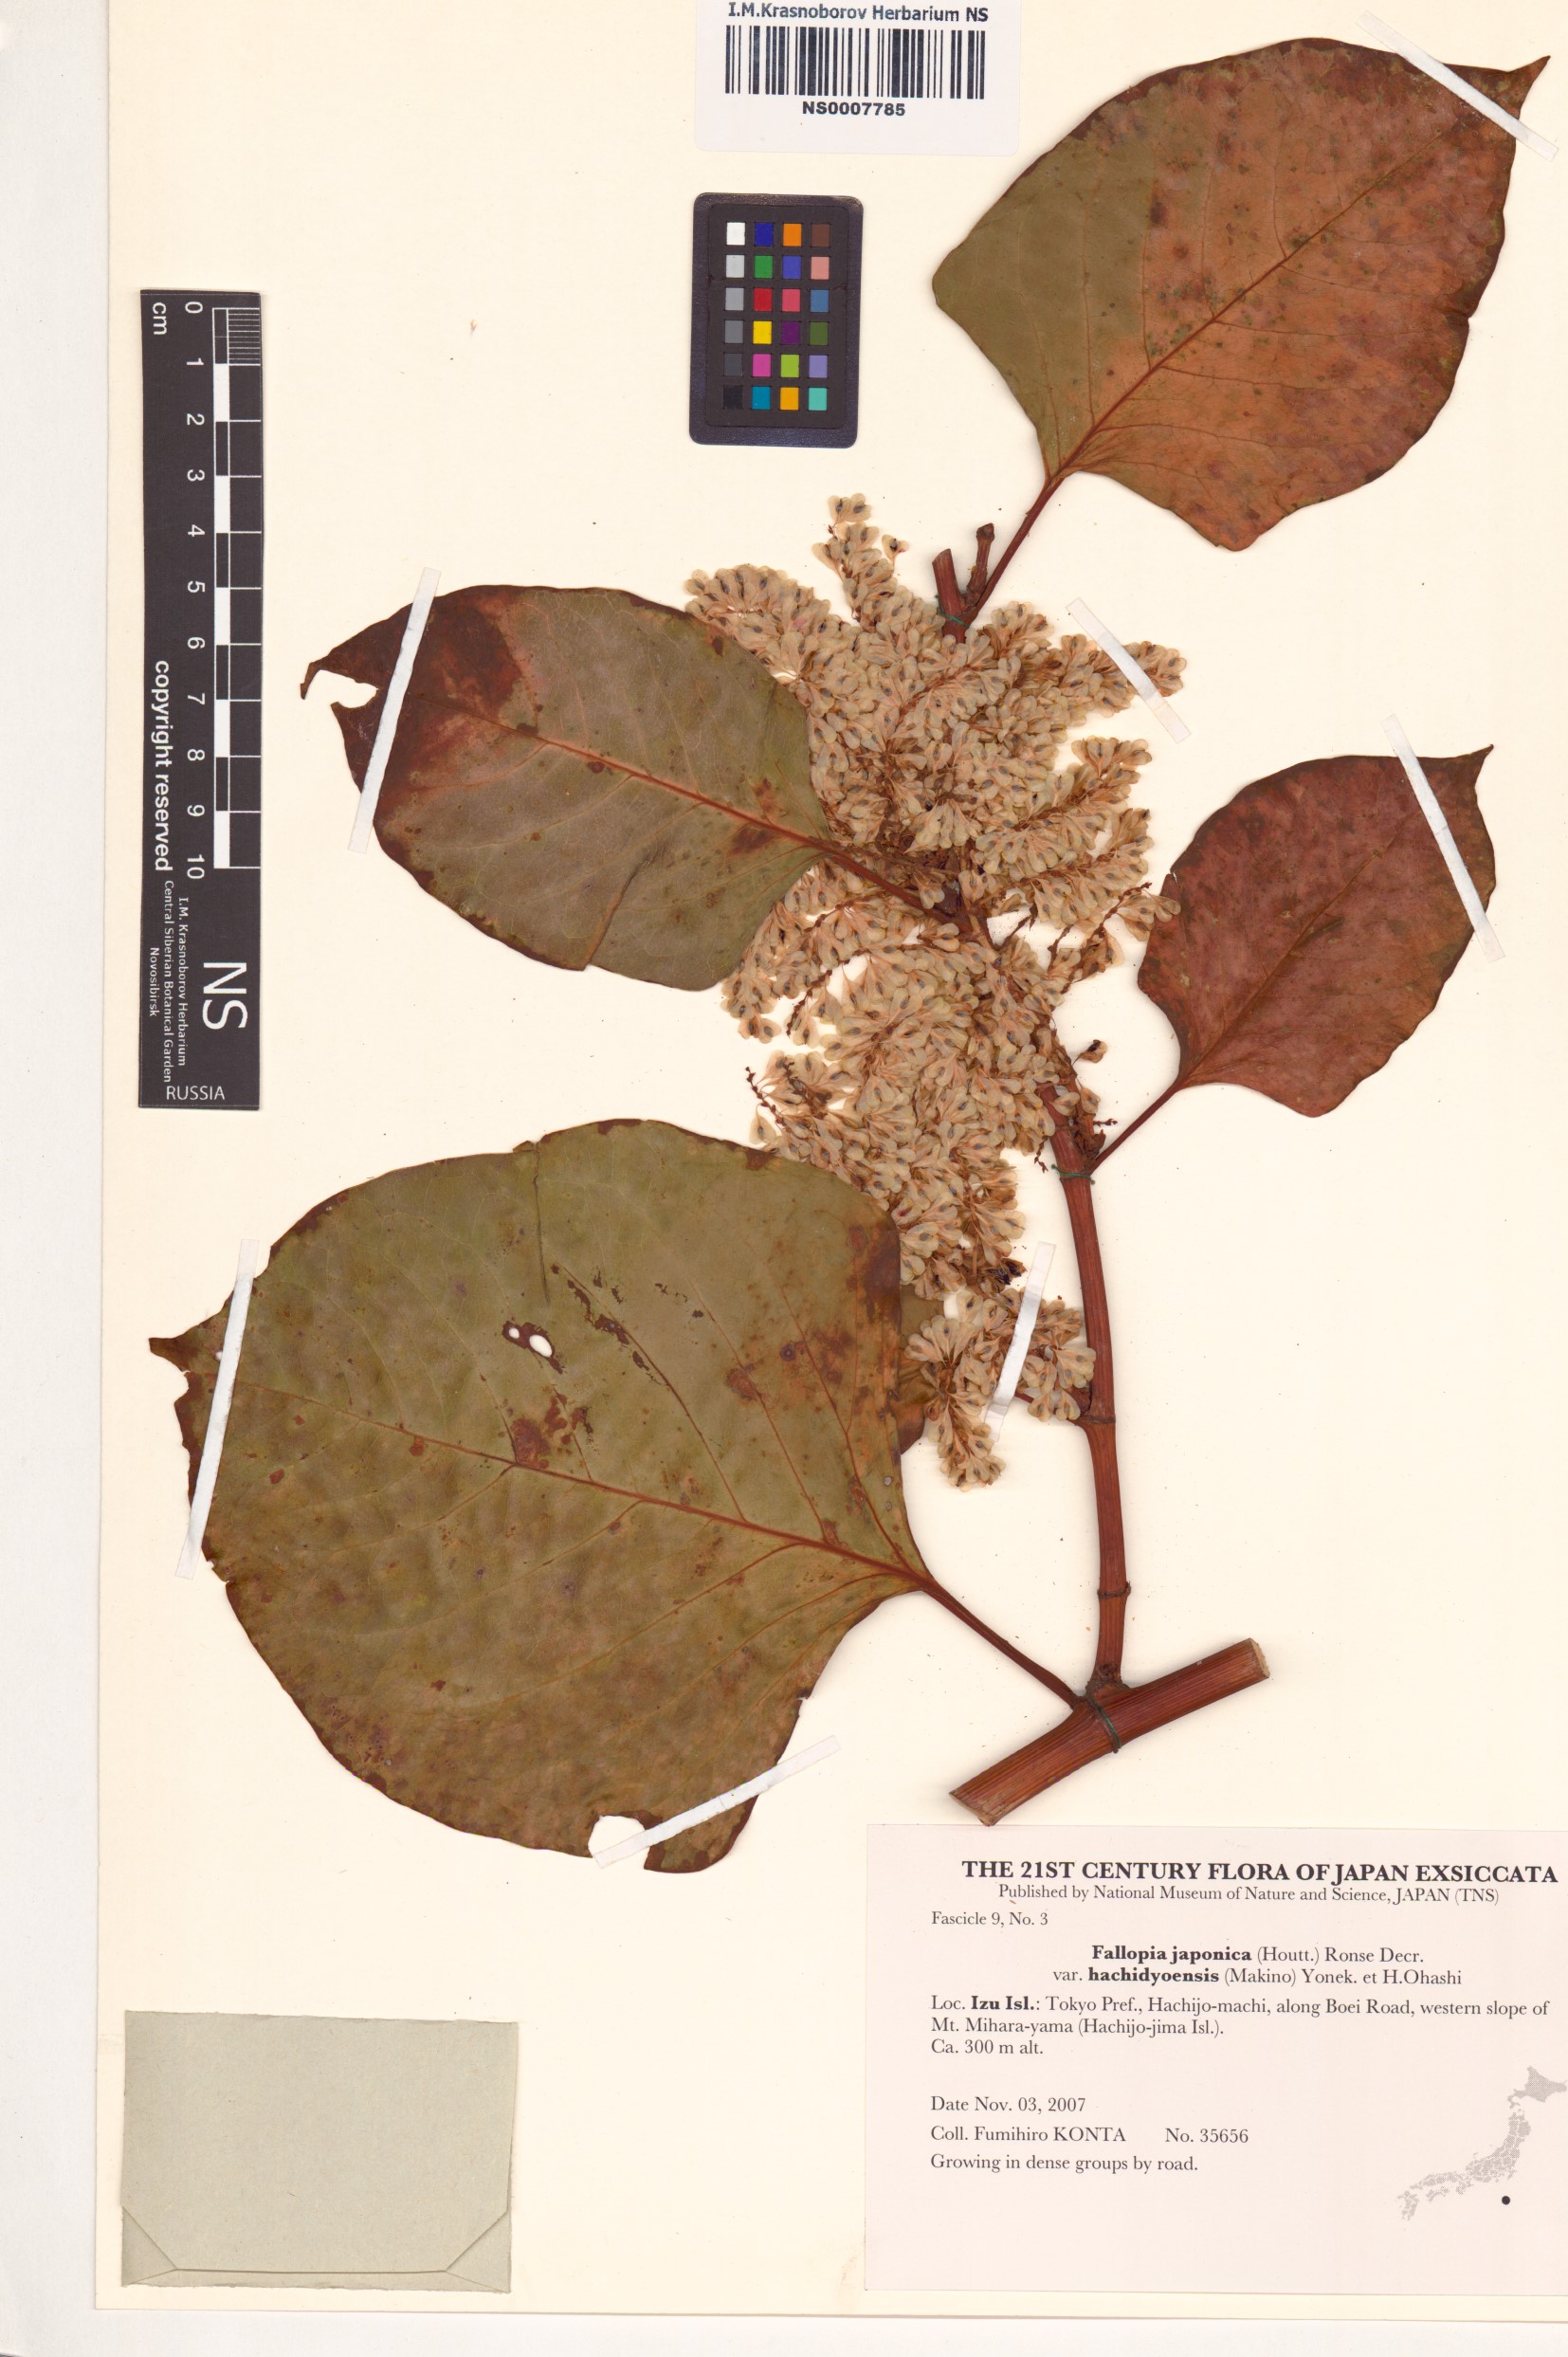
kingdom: Plantae
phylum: Tracheophyta
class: Magnoliopsida
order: Caryophyllales
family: Polygonaceae
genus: Reynoutria
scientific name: Reynoutria japonica
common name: Japanese knotweed
